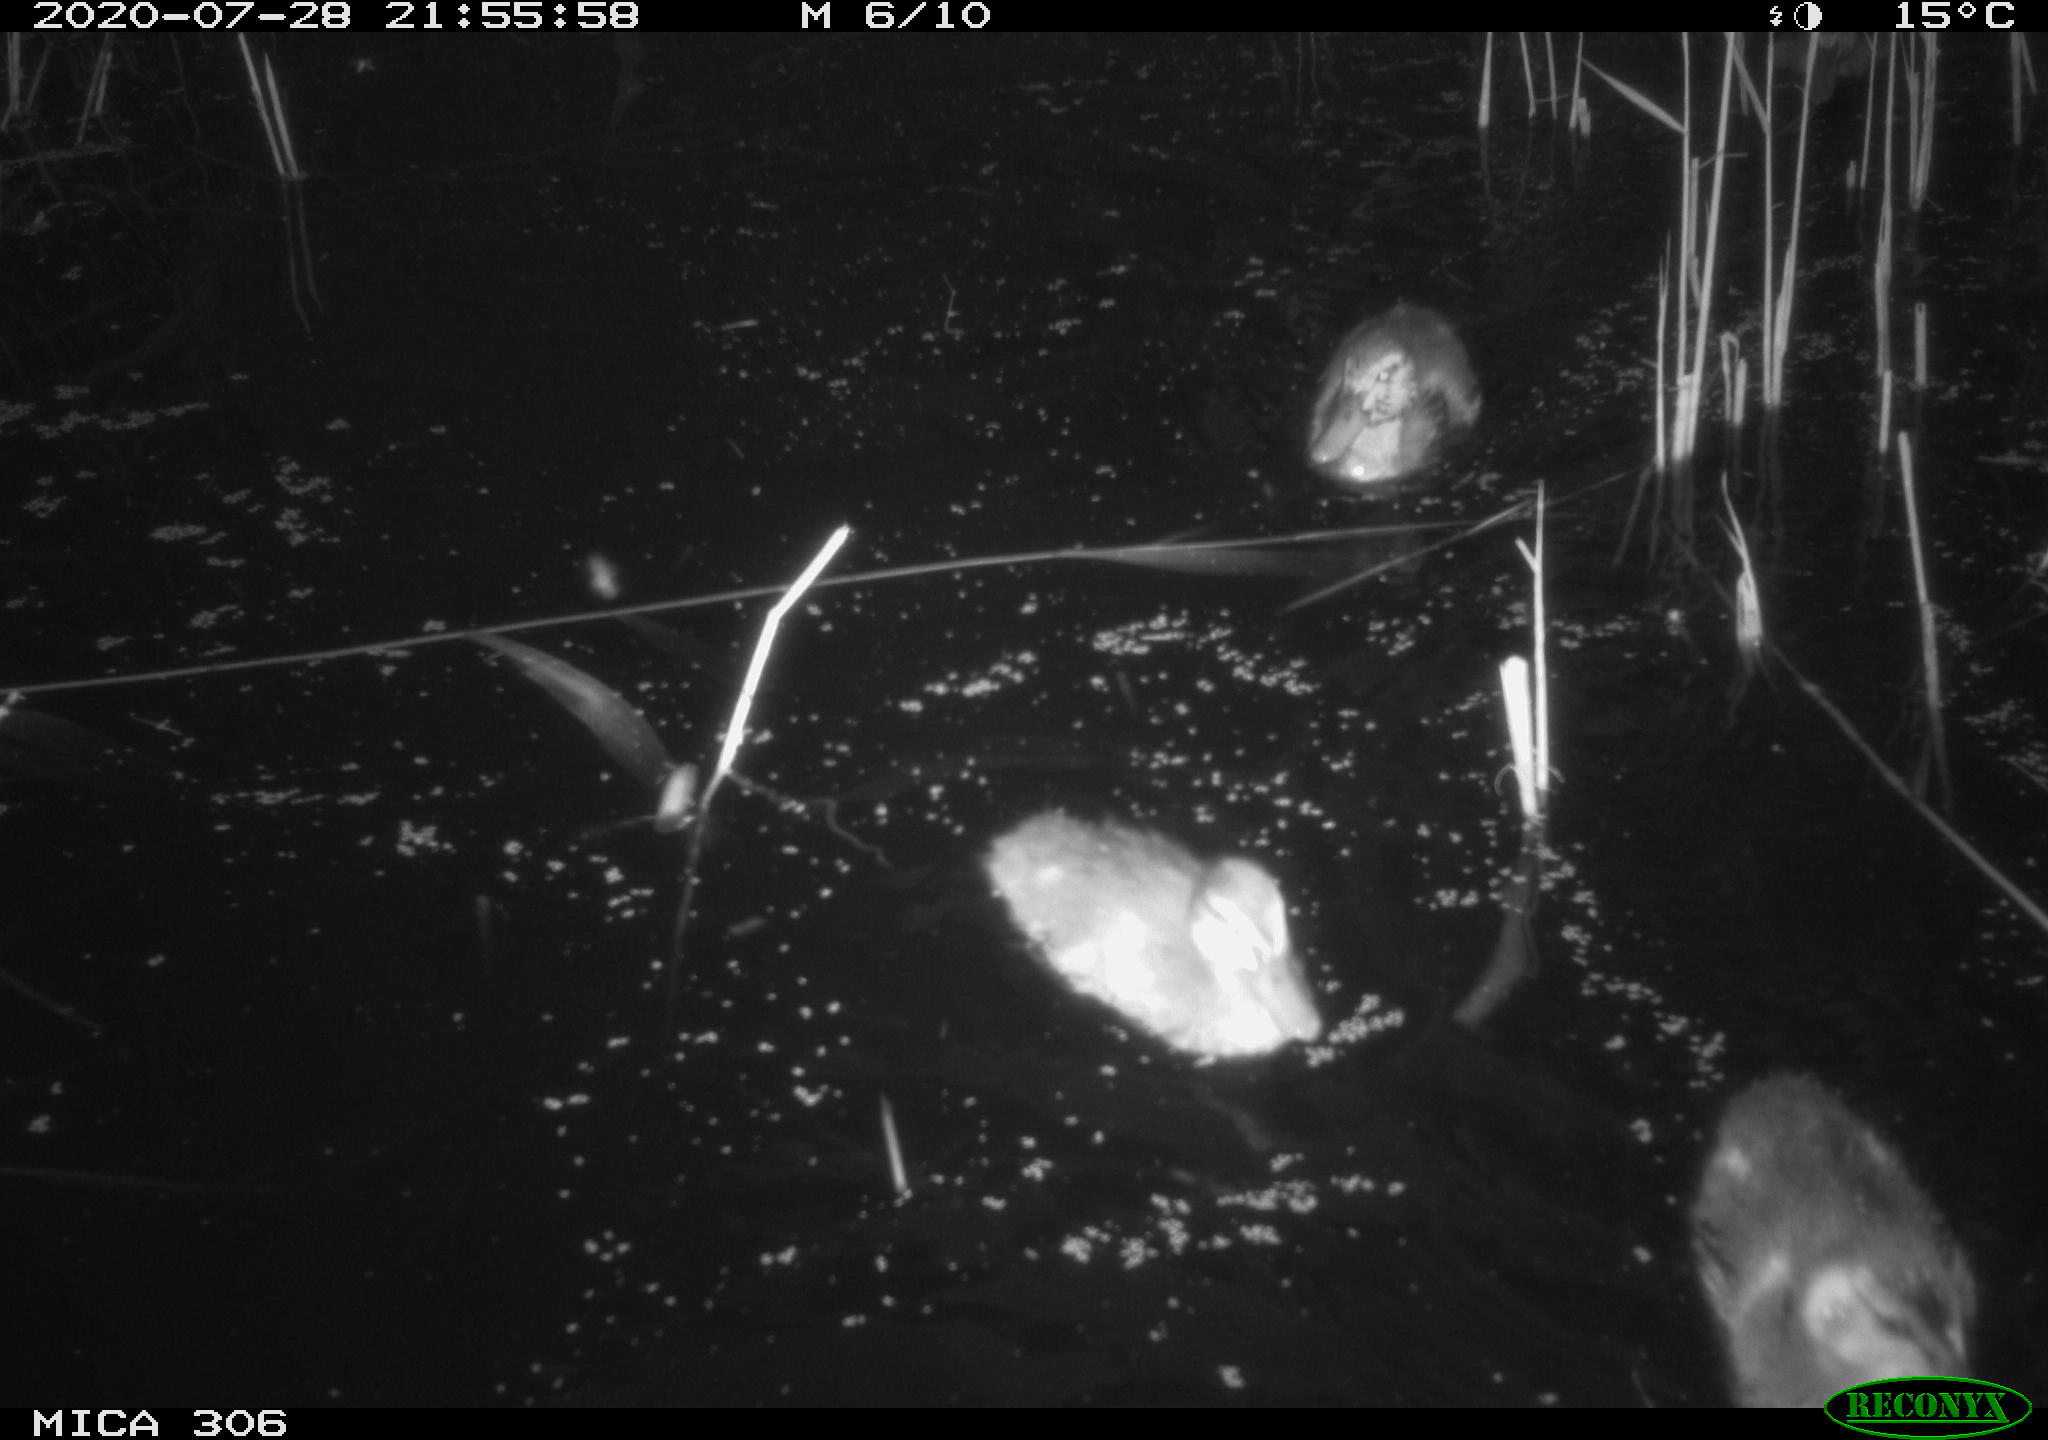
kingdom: Animalia
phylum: Chordata
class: Aves
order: Anseriformes
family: Anatidae
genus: Anas
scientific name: Anas platyrhynchos
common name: Mallard
